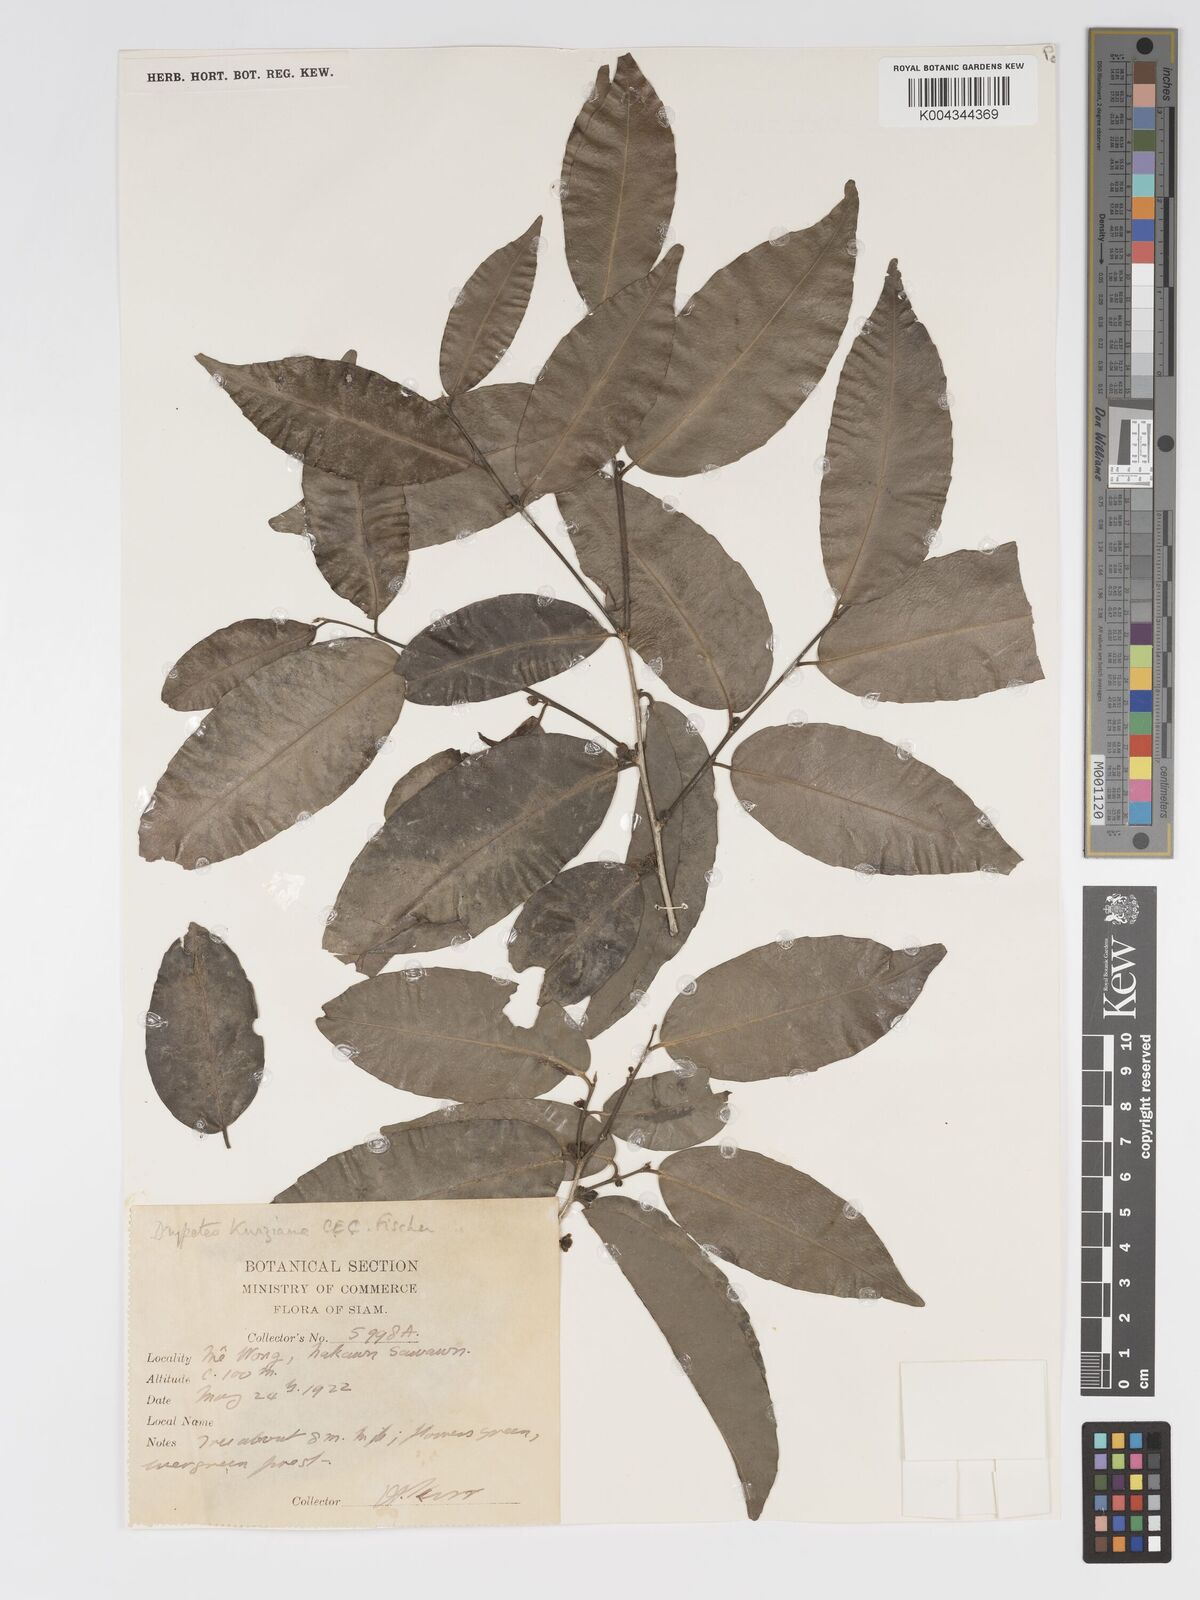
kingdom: Plantae
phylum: Tracheophyta
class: Magnoliopsida
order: Malpighiales
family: Putranjivaceae
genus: Drypetes
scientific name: Drypetes cambodica
